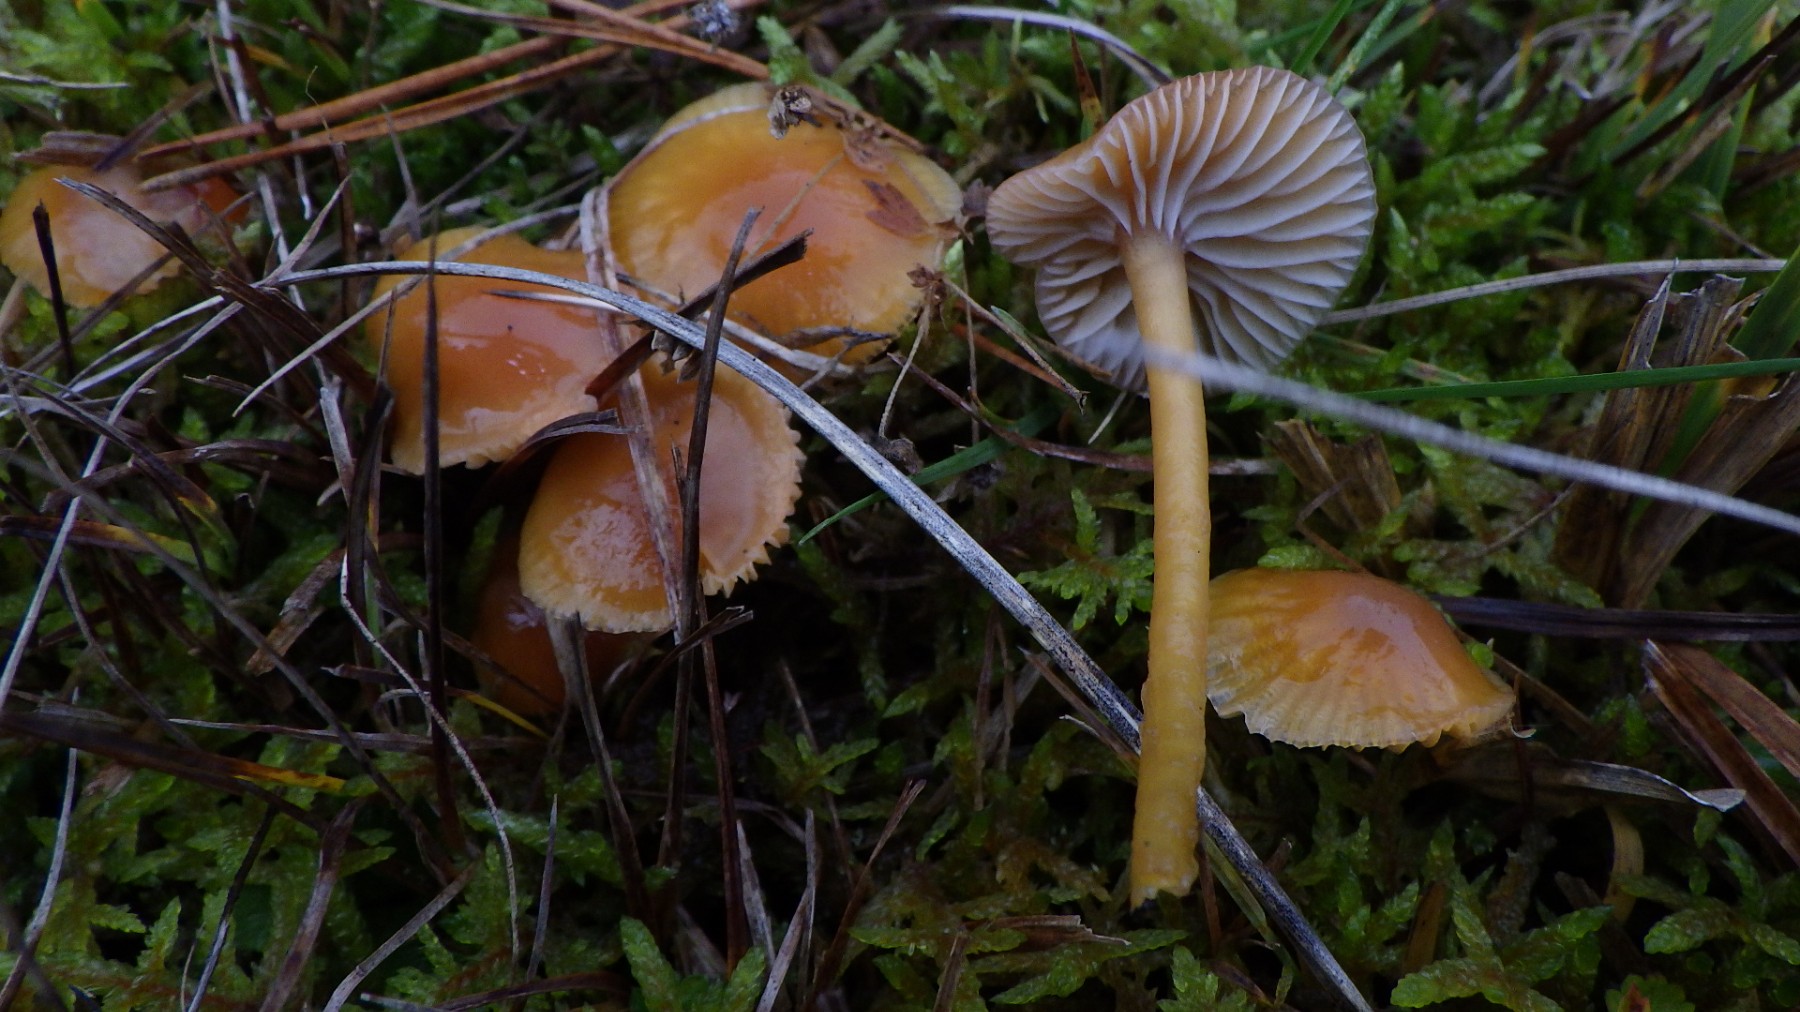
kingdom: Fungi
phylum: Basidiomycota
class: Agaricomycetes
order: Agaricales
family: Hygrophoraceae
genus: Gliophorus
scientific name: Gliophorus laetus
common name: brusk-vokshat
